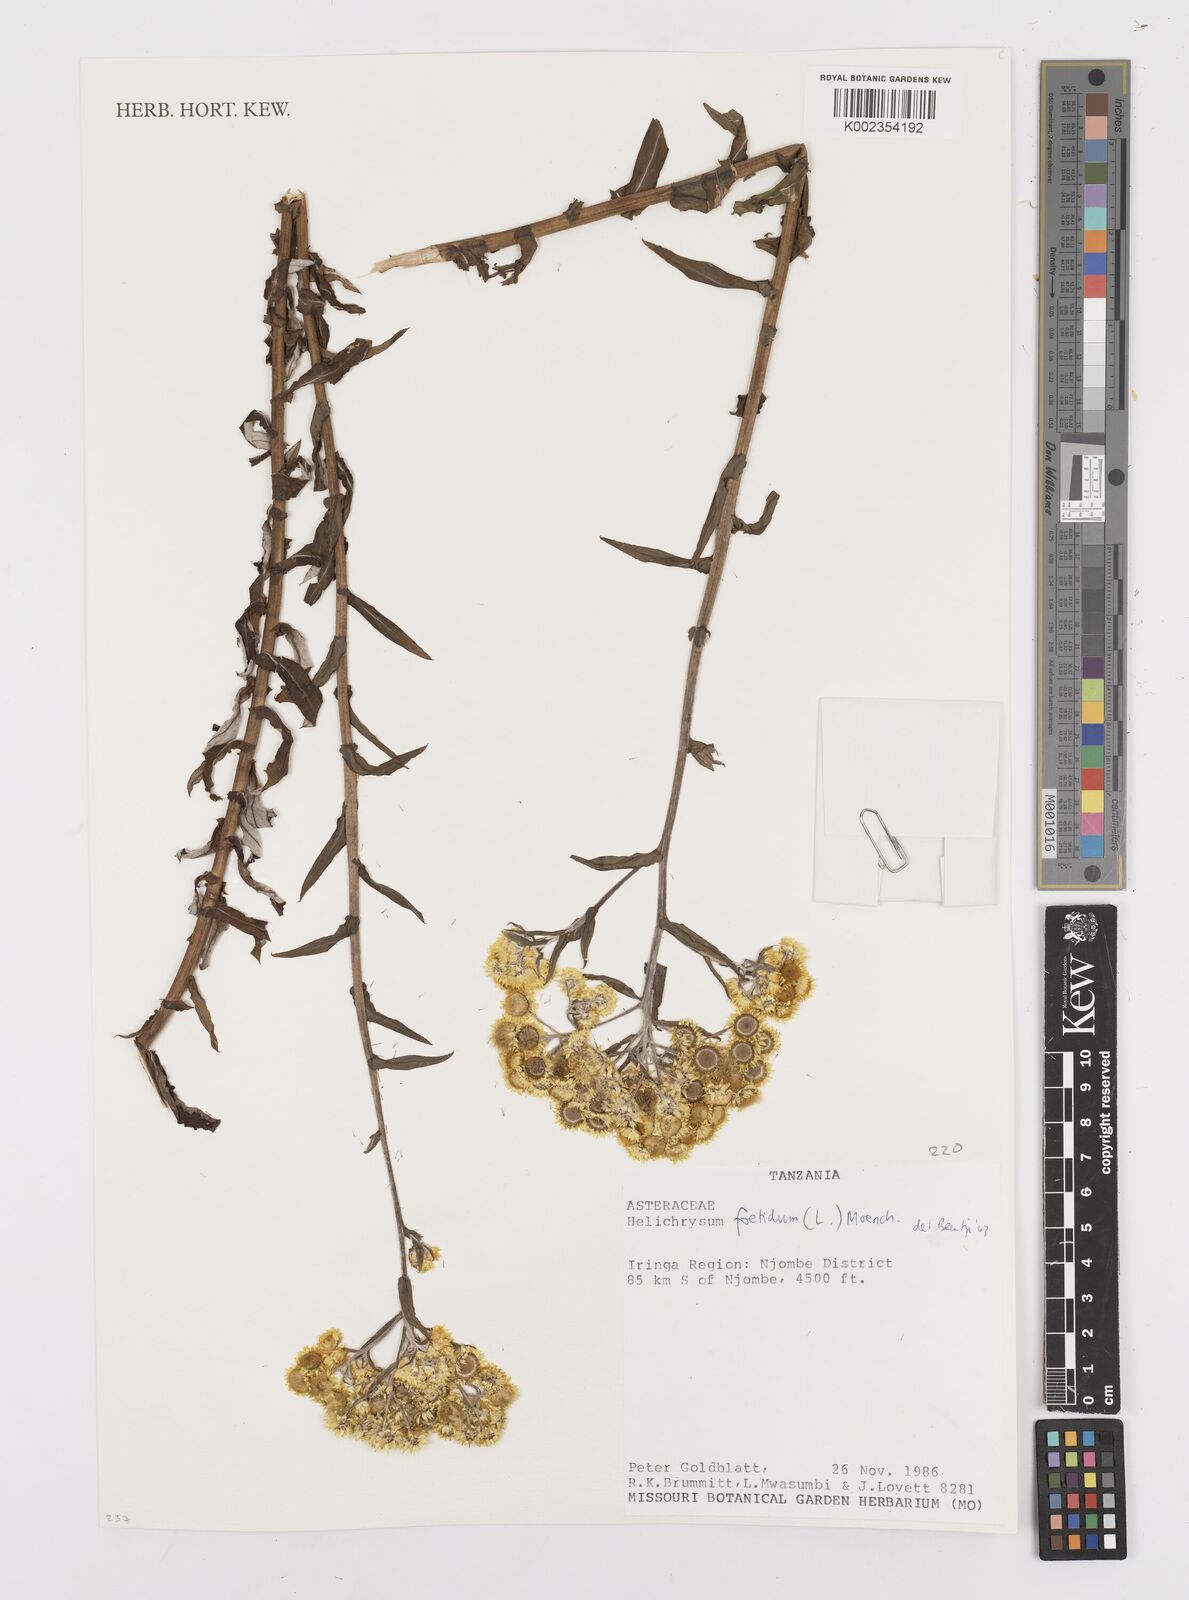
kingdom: Plantae
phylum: Tracheophyta
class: Magnoliopsida
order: Asterales
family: Asteraceae
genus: Helichrysum
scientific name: Helichrysum foetidum
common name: Stinking everlasting
